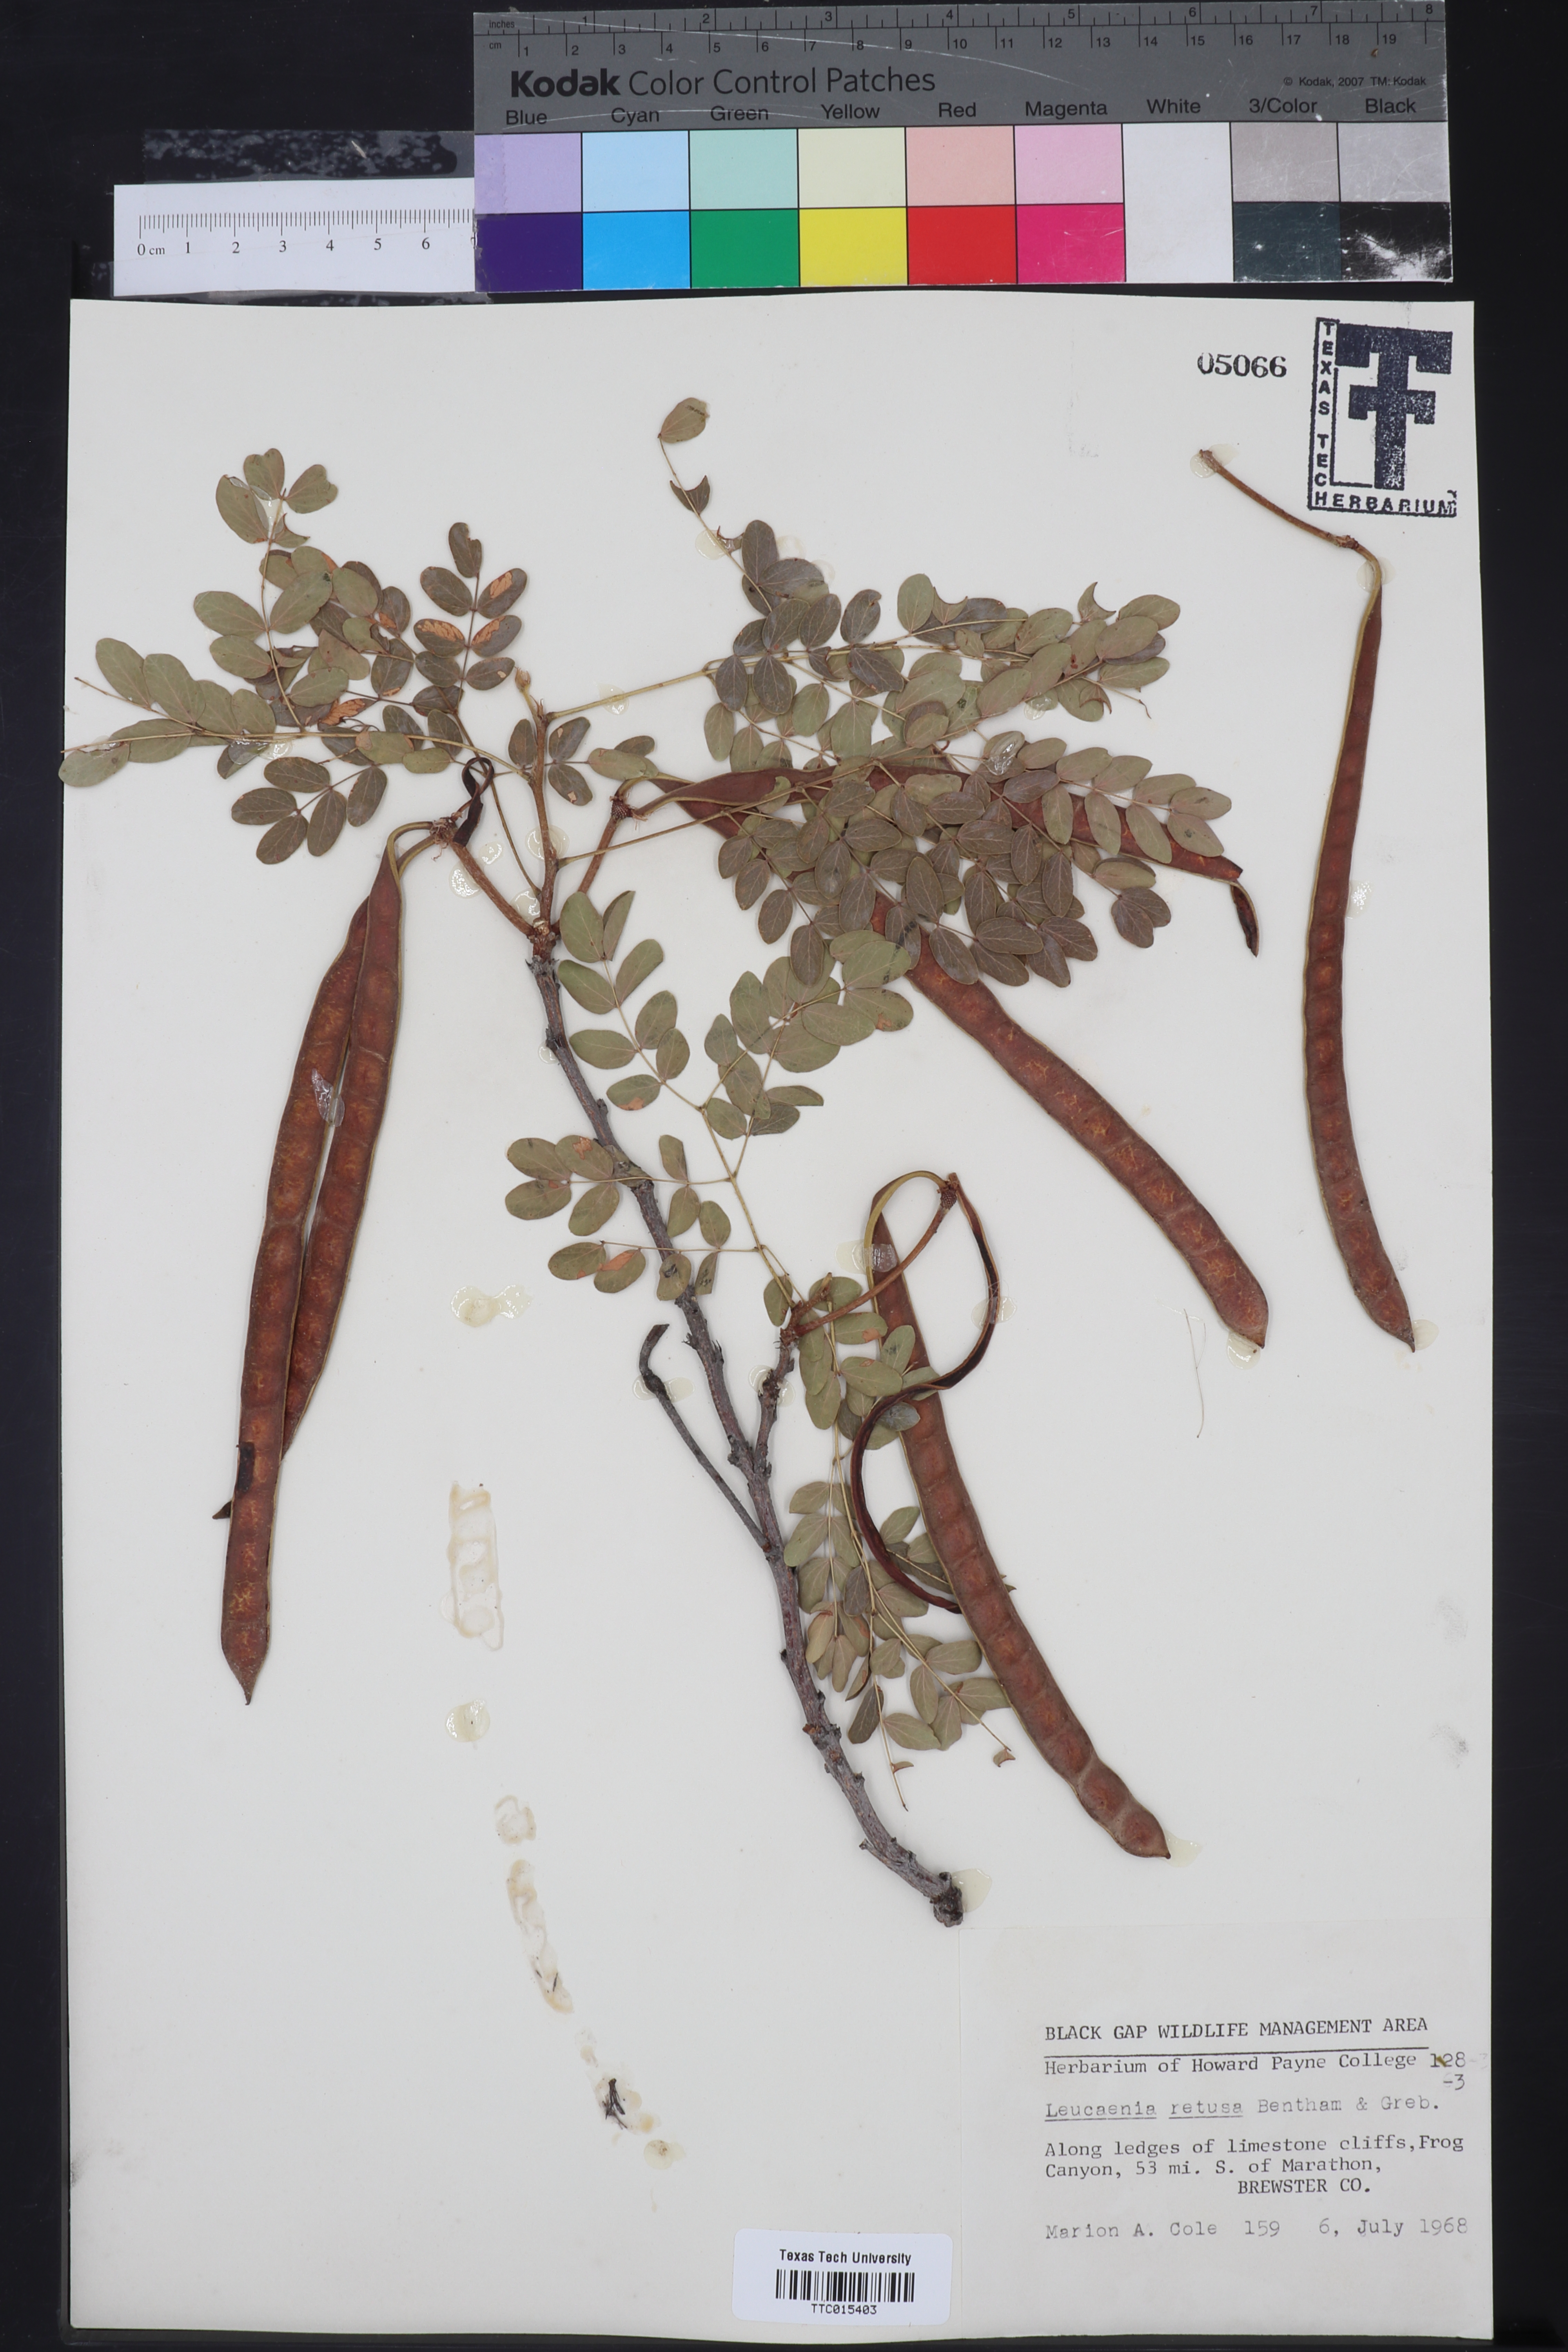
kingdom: Plantae
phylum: Tracheophyta
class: Magnoliopsida
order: Fabales
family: Fabaceae
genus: Leucaena
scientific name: Leucaena retusa
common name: Littleleaf leadtree
